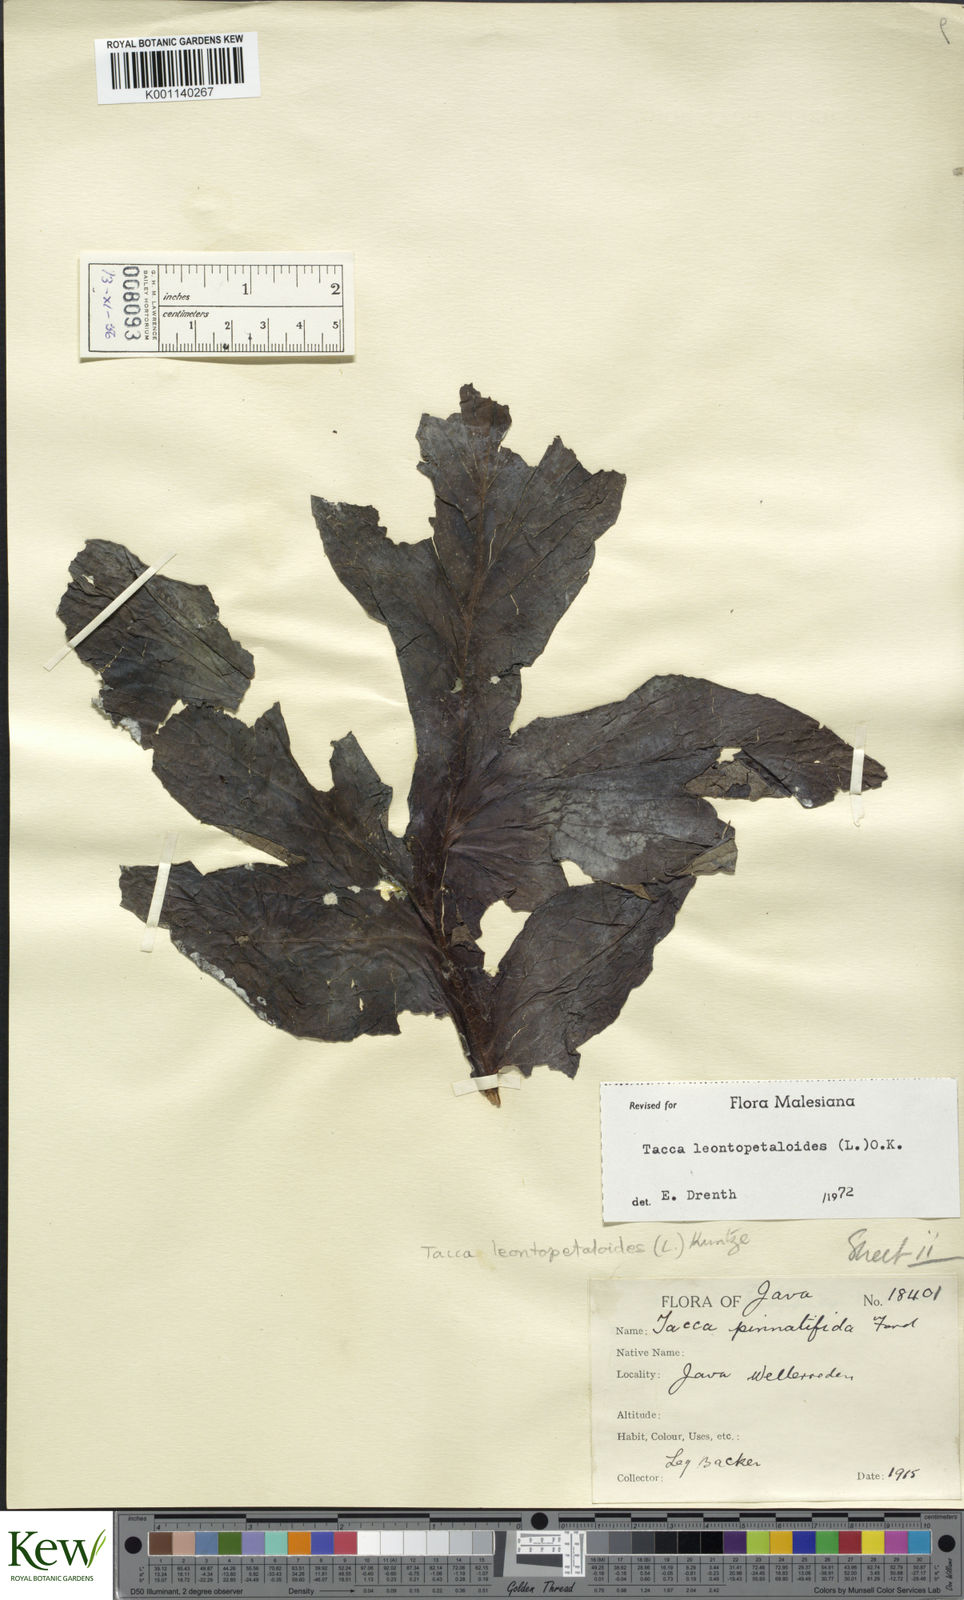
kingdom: Plantae
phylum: Tracheophyta
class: Liliopsida
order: Dioscoreales
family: Dioscoreaceae
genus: Tacca
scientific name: Tacca leontopetaloides
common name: Arrowroot
